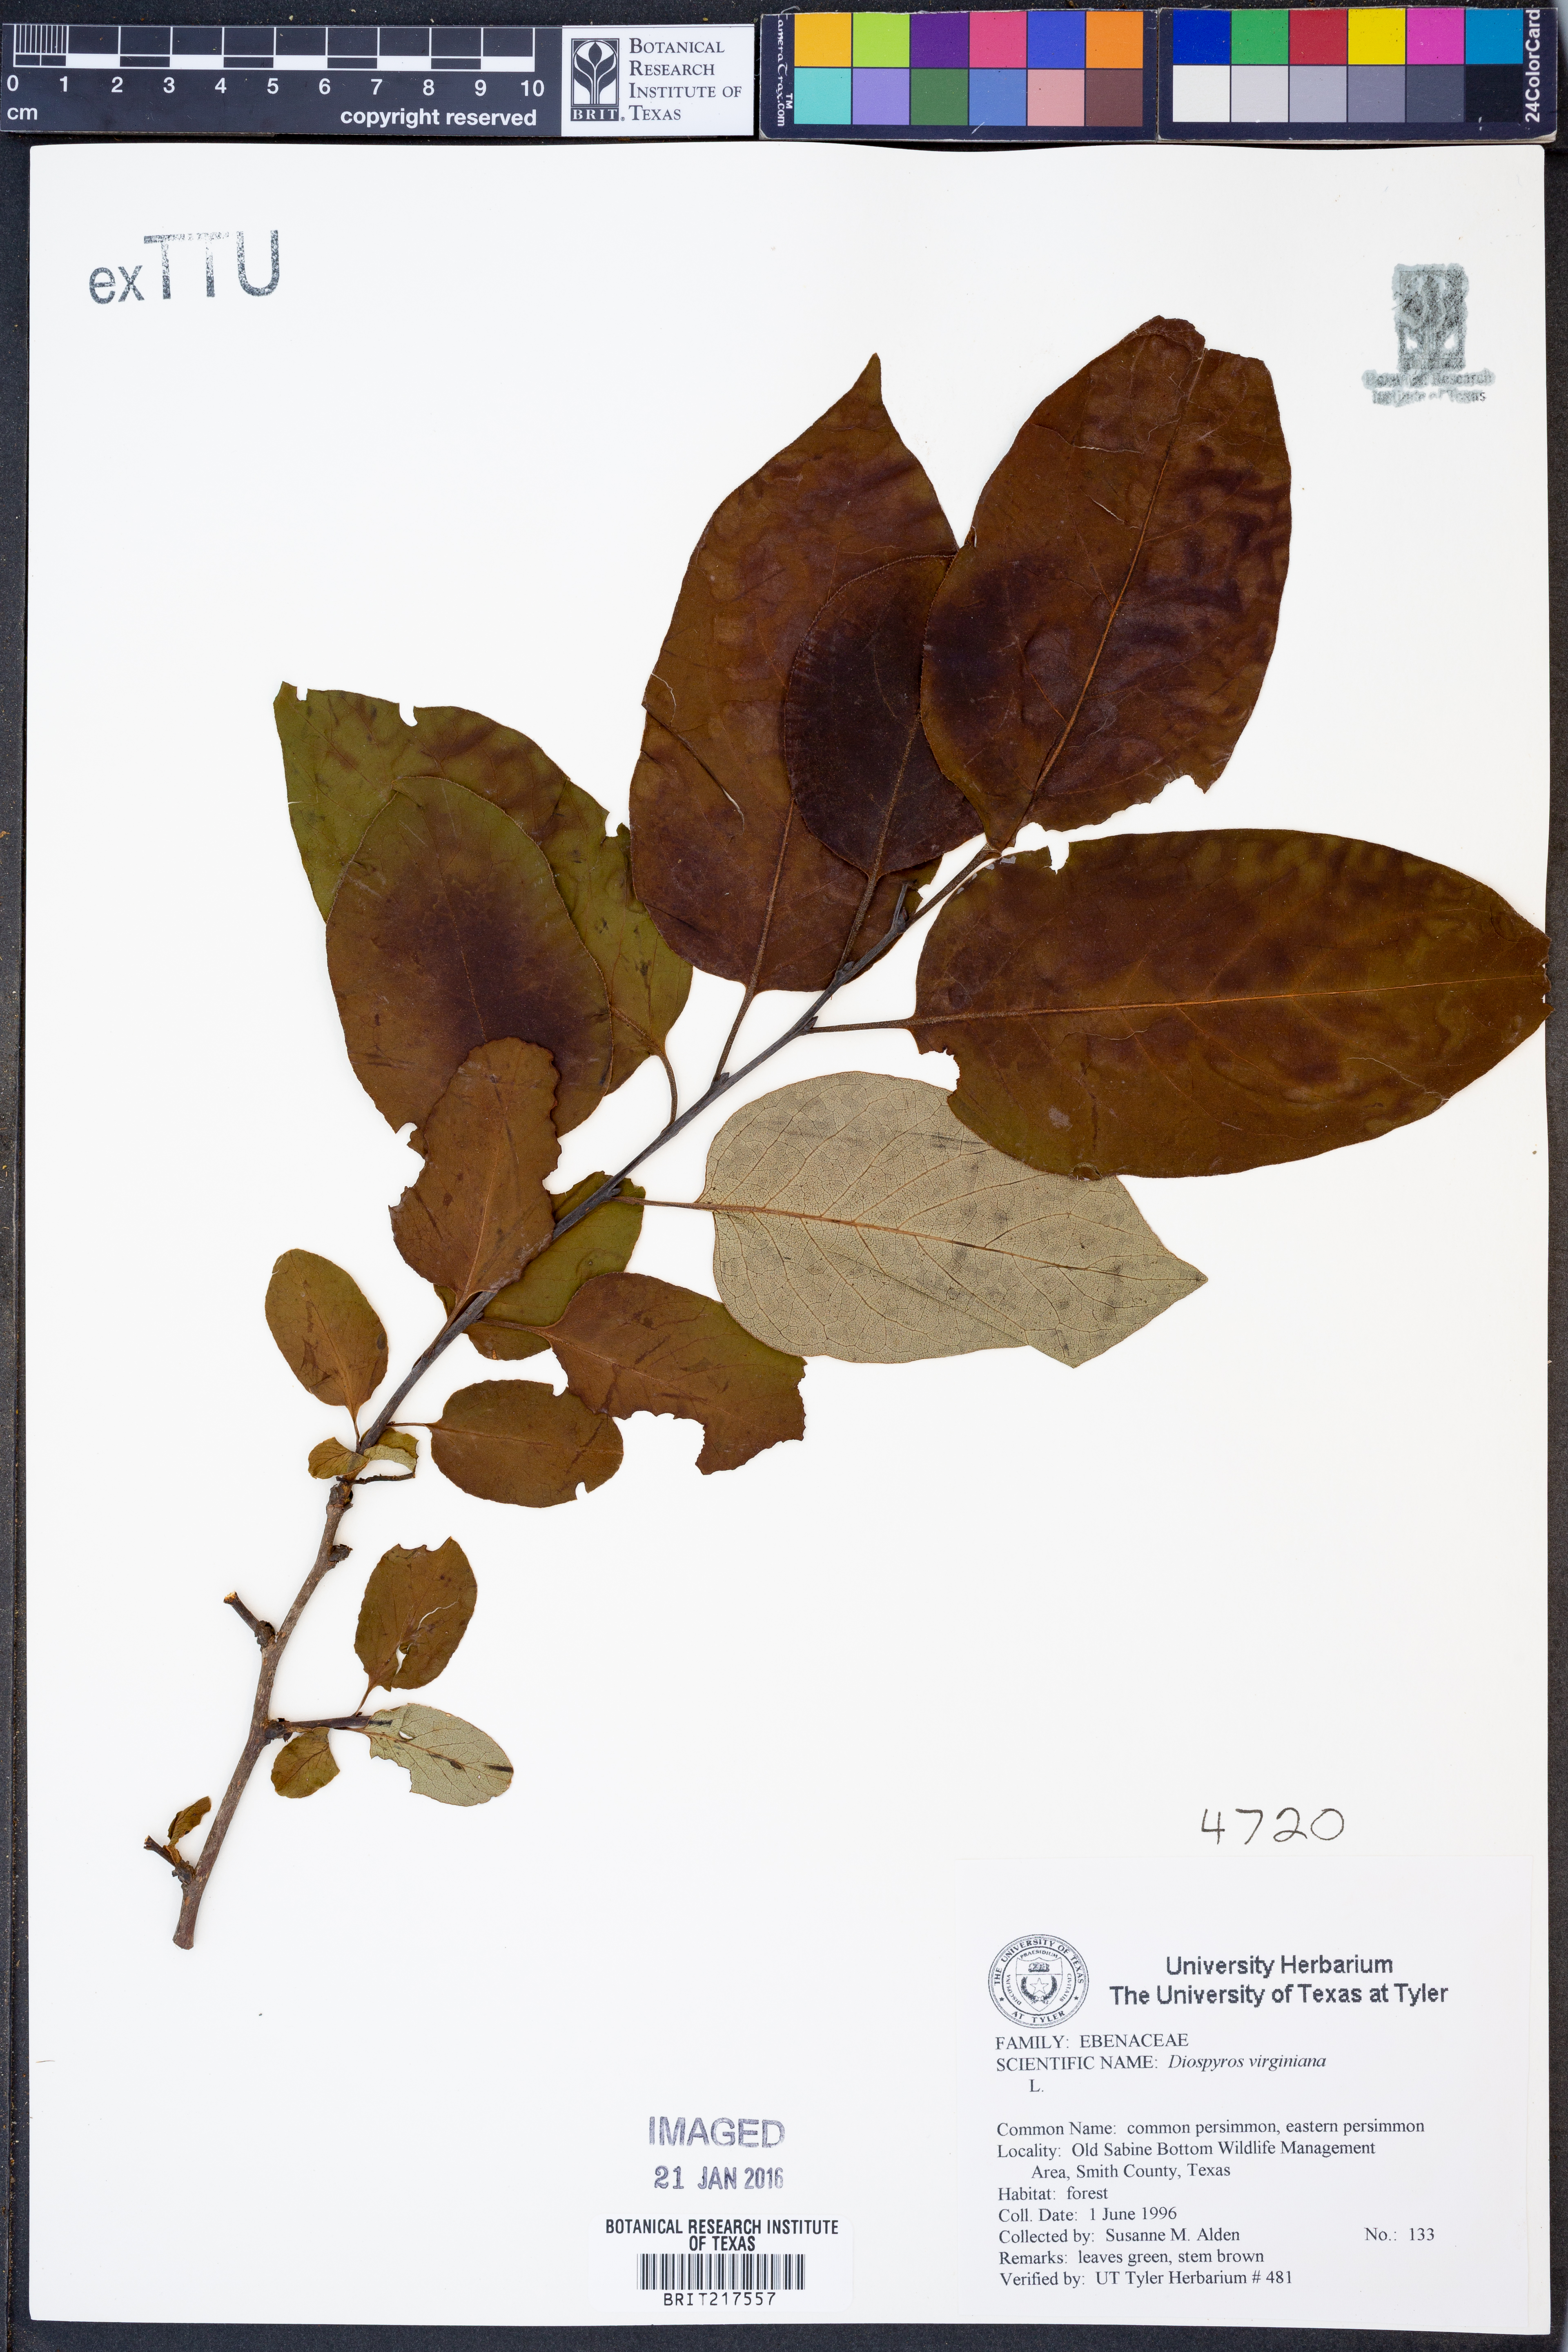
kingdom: Plantae
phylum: Tracheophyta
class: Magnoliopsida
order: Ericales
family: Ebenaceae
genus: Diospyros
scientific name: Diospyros virginiana
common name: Persimmon
